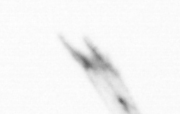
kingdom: Animalia
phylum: Arthropoda
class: Copepoda
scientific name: Copepoda
